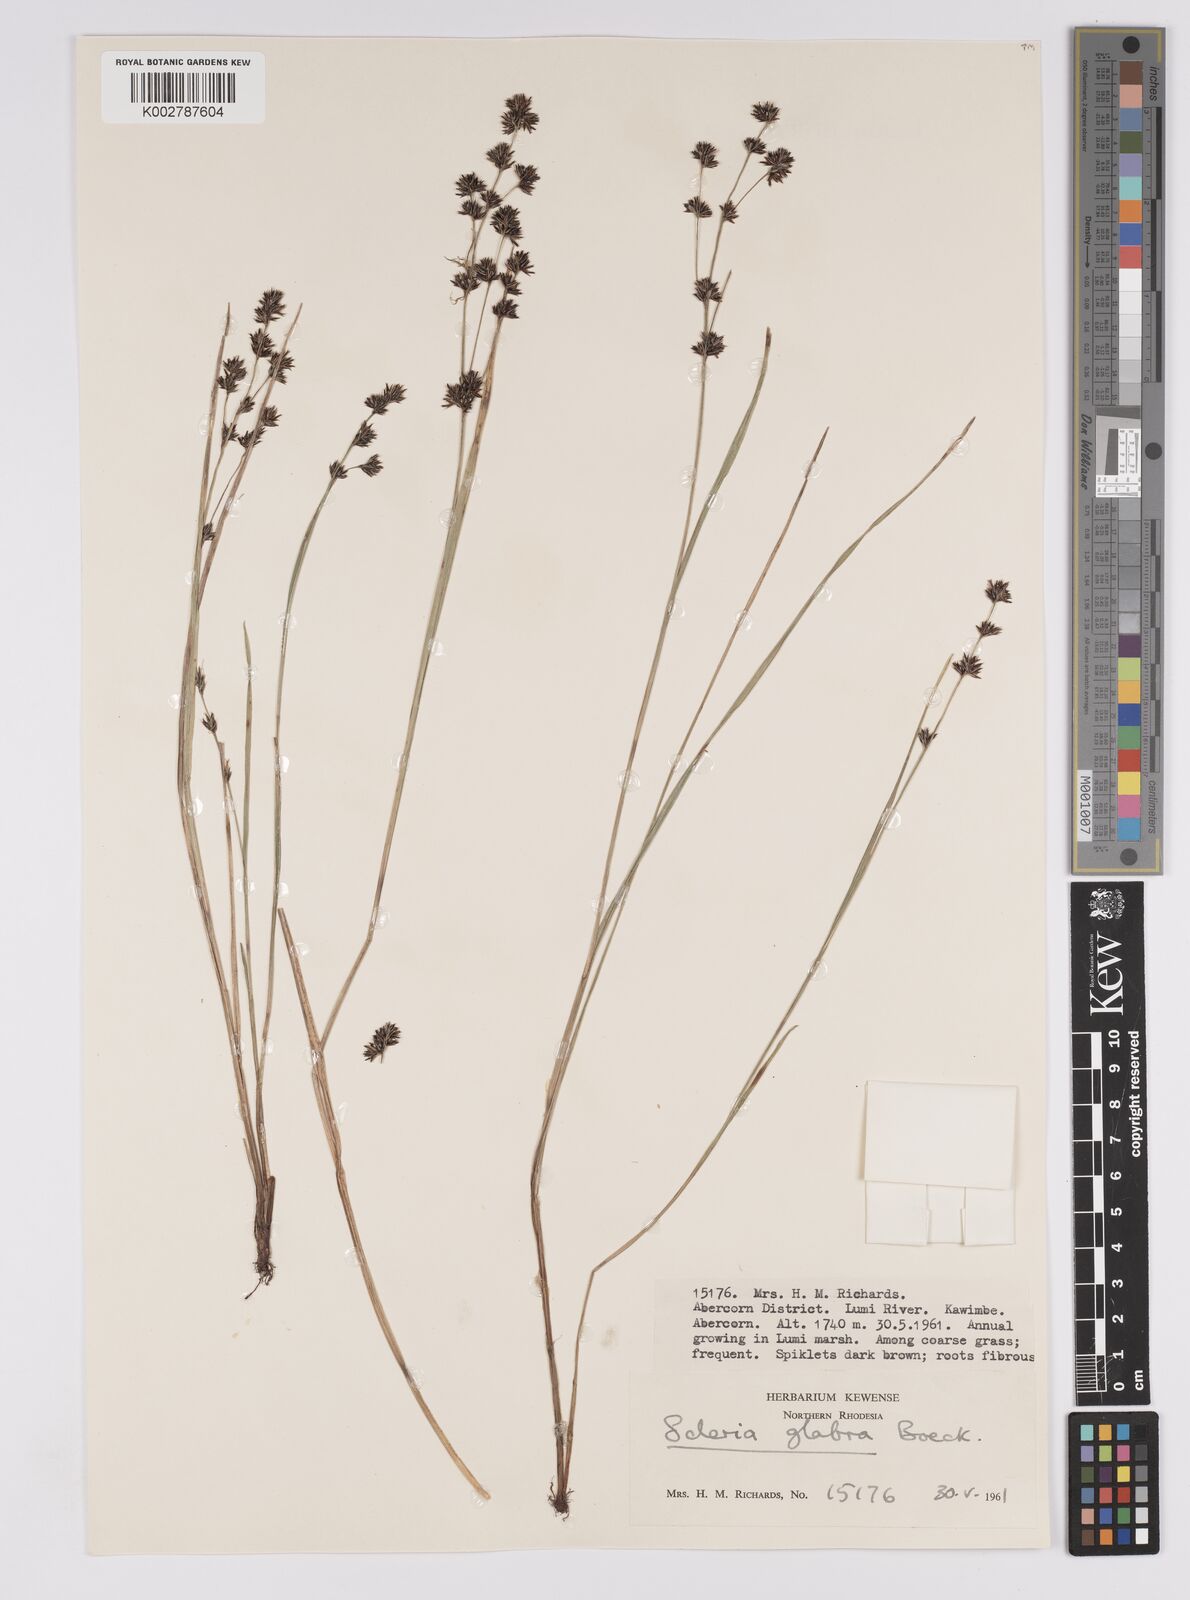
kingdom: Plantae
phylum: Tracheophyta
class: Liliopsida
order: Poales
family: Cyperaceae
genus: Scleria
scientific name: Scleria glabra
